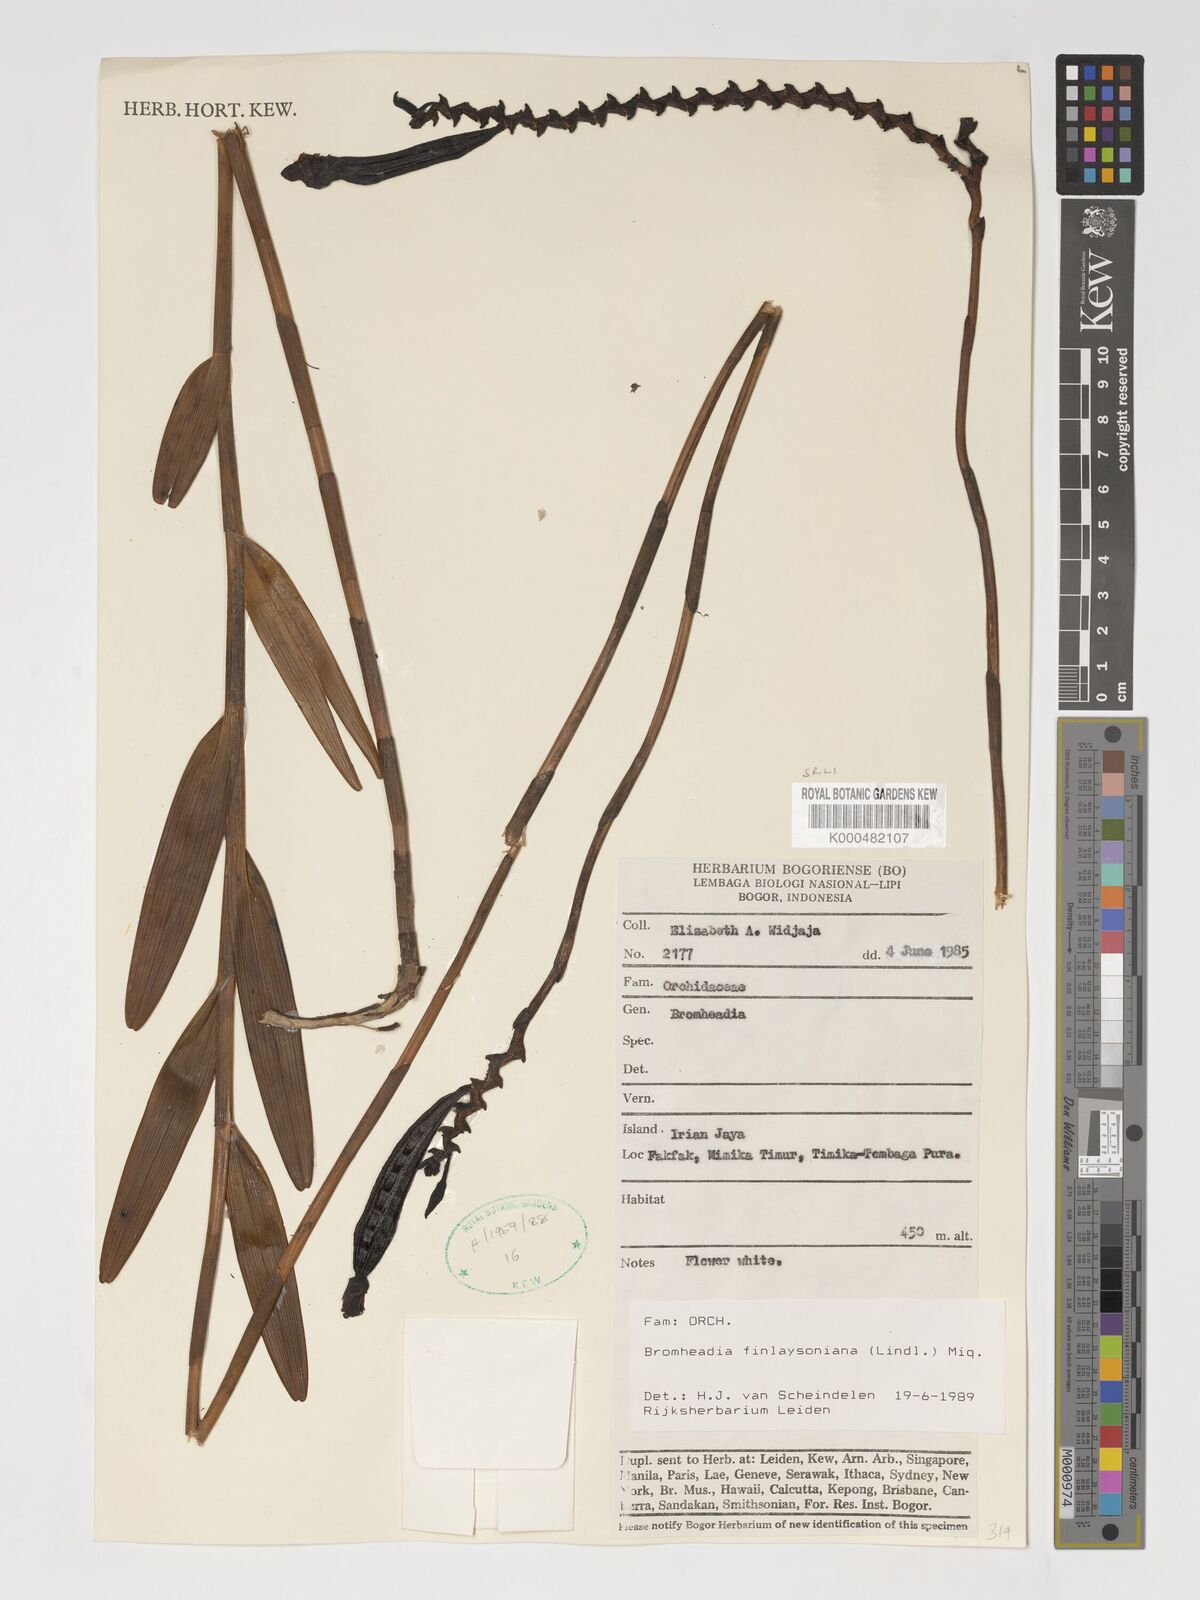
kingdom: Plantae
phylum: Tracheophyta
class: Liliopsida
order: Asparagales
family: Orchidaceae
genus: Bromheadia
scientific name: Bromheadia finlaysoniana
